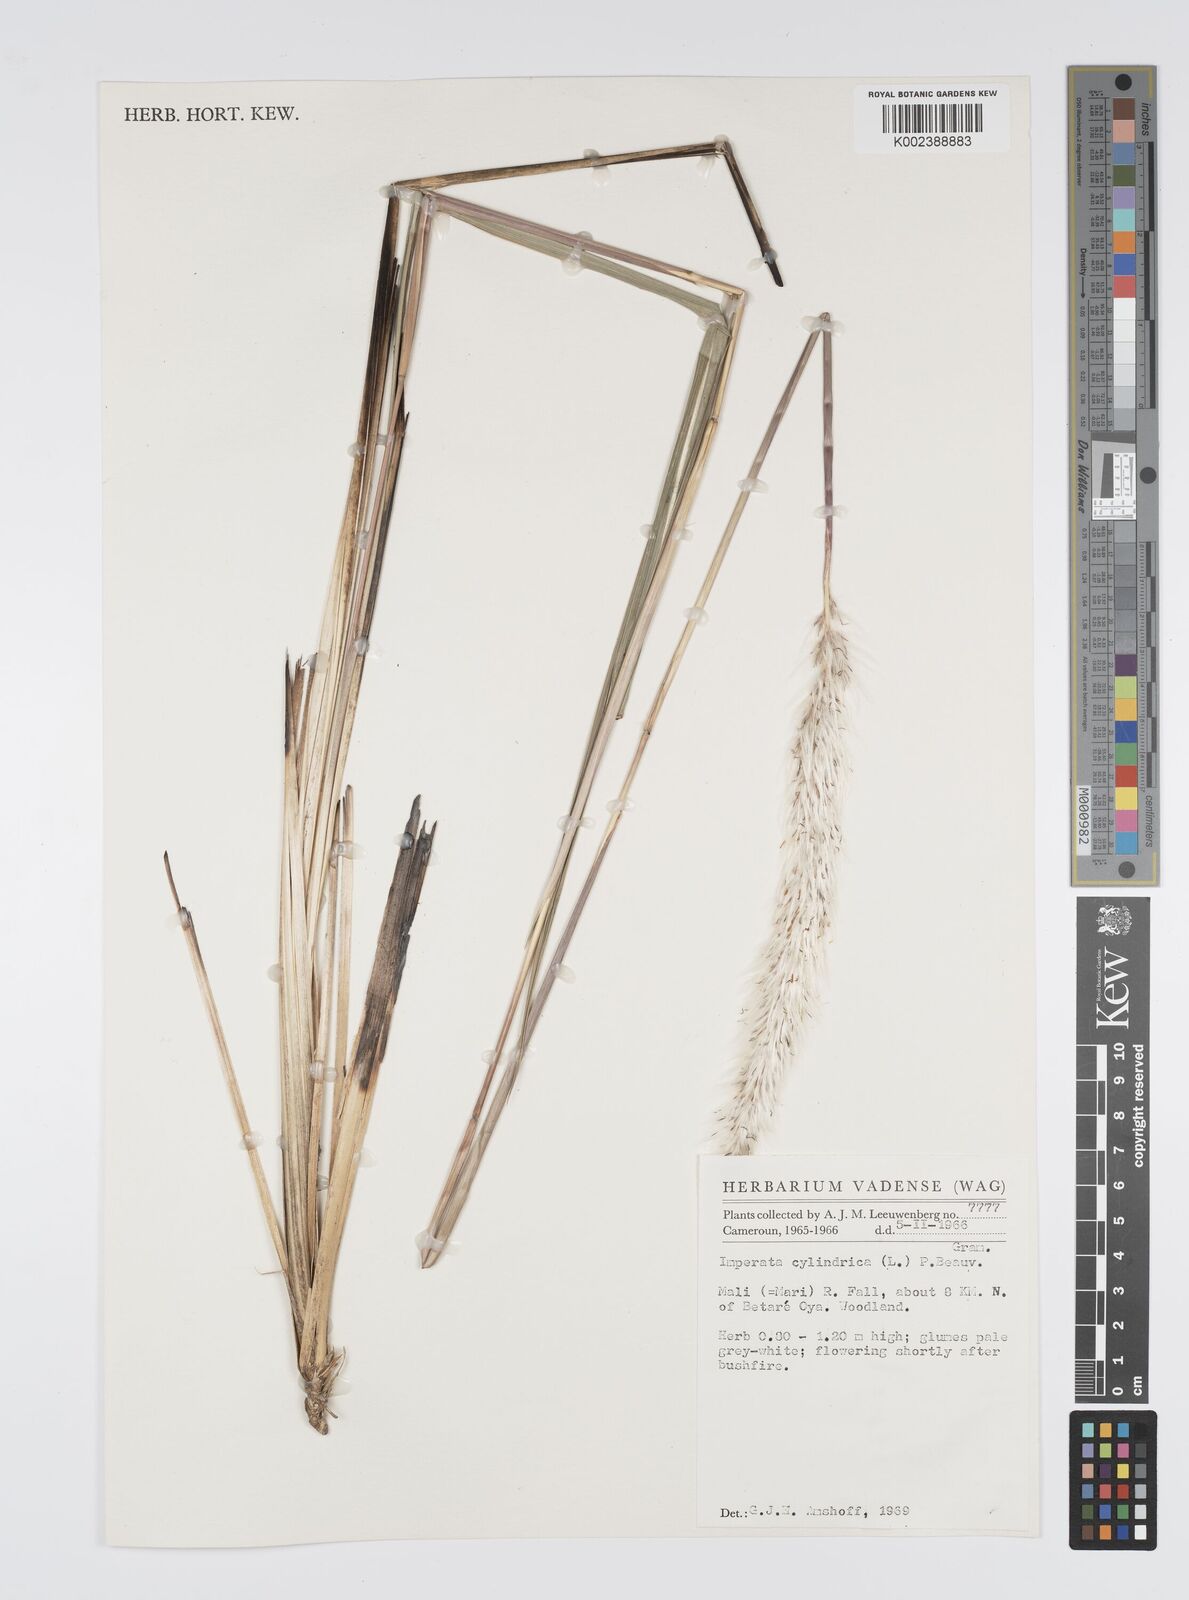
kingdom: Plantae
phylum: Tracheophyta
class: Liliopsida
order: Poales
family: Poaceae
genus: Imperata
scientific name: Imperata cylindrica
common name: Cogongrass
